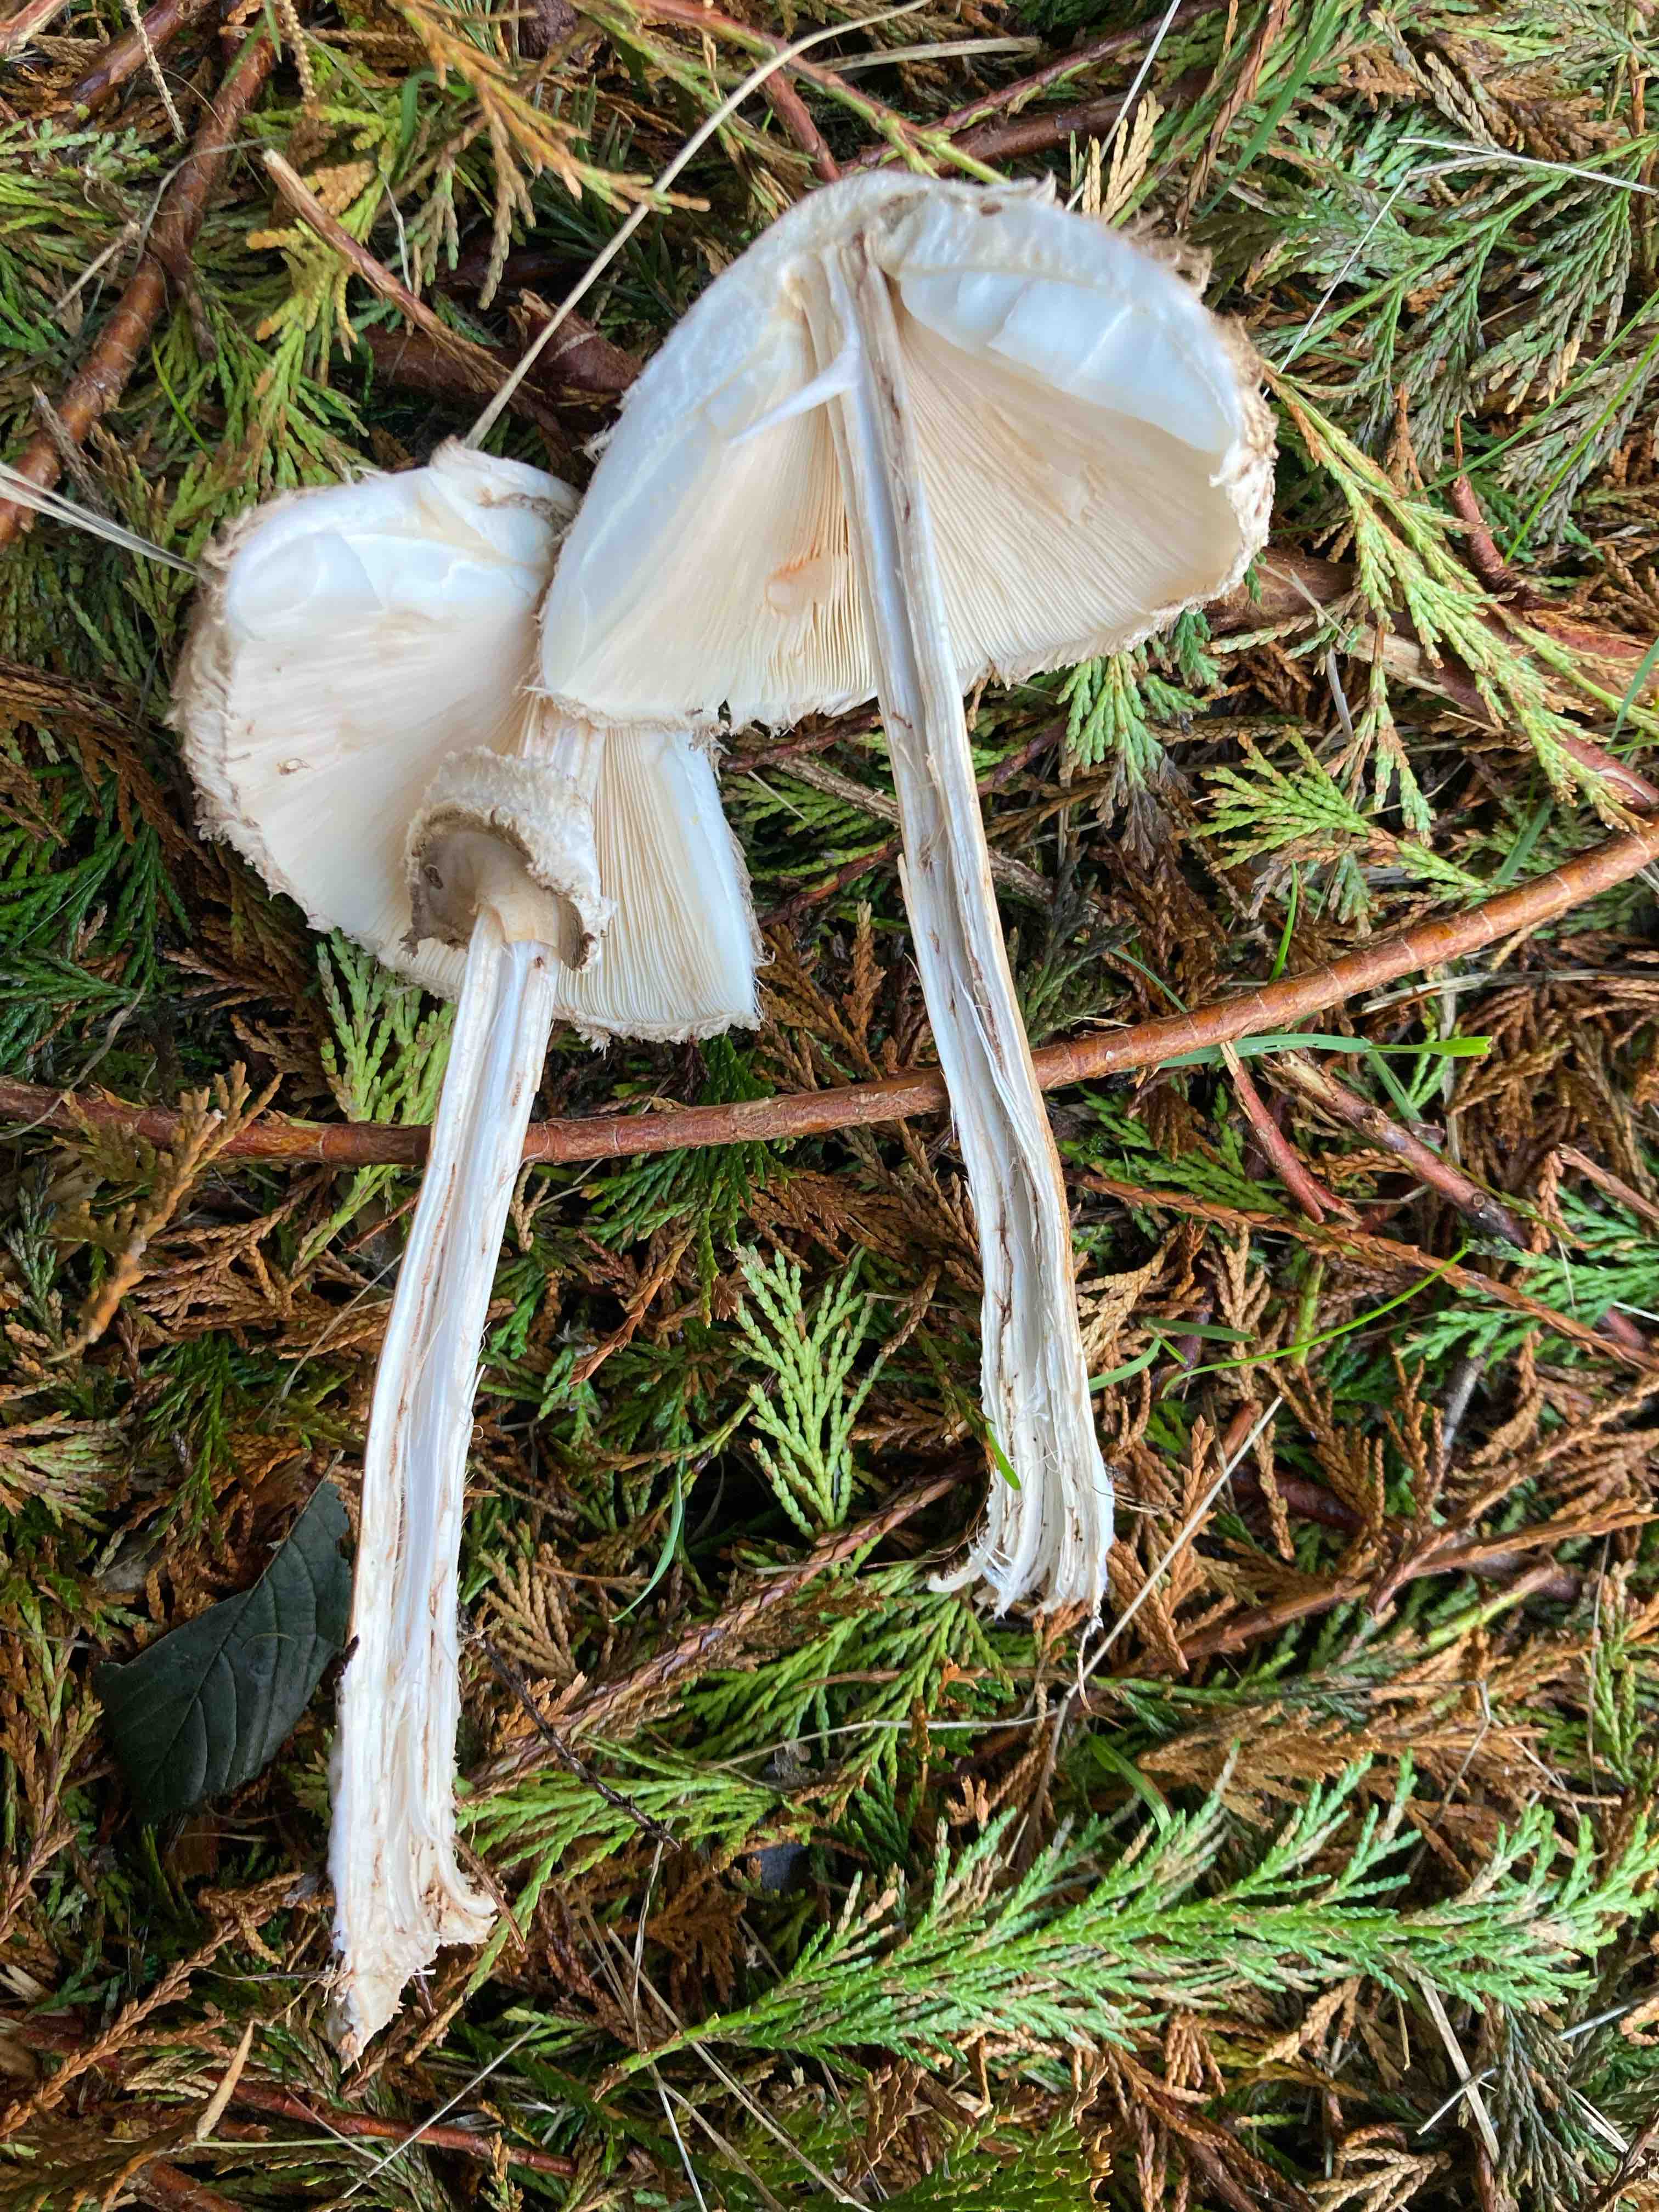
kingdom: Fungi
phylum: Basidiomycota
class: Agaricomycetes
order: Agaricales
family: Agaricaceae
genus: Chlorophyllum
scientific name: Chlorophyllum olivieri
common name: almindelig rabarberhat
